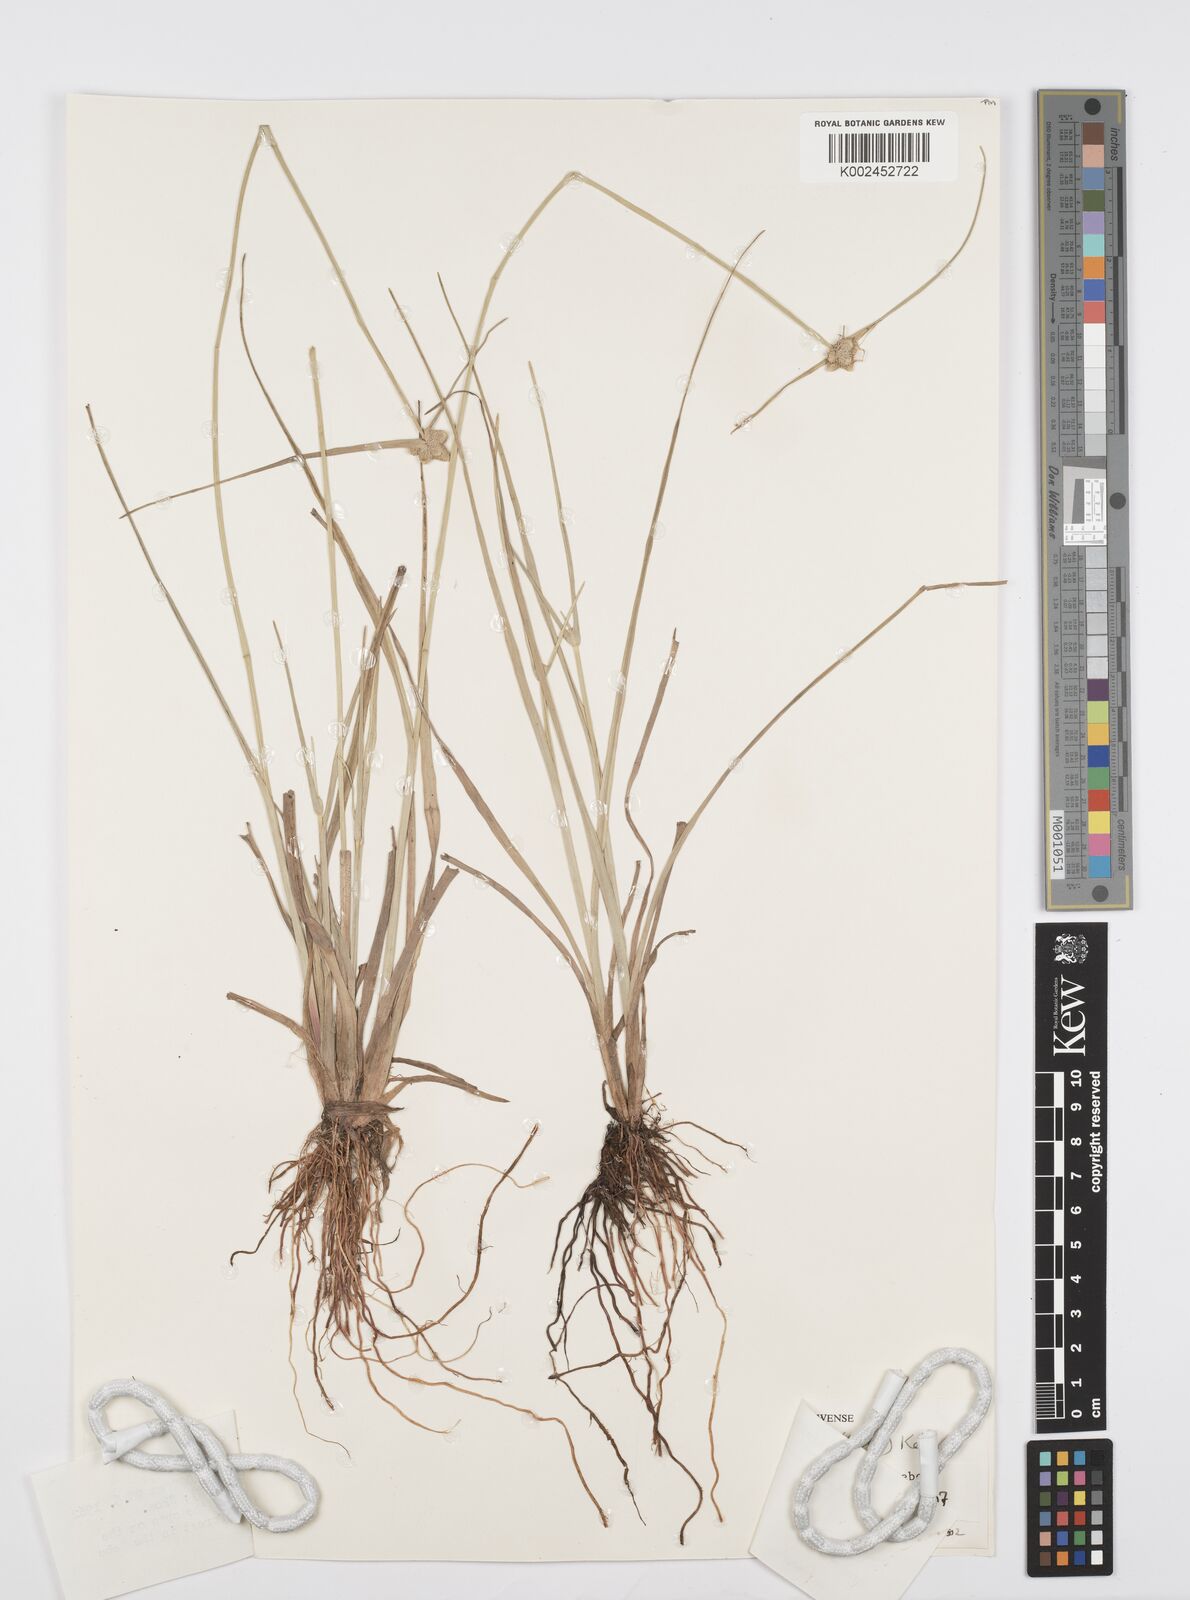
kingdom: Plantae
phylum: Tracheophyta
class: Liliopsida
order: Poales
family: Cyperaceae
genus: Cyperus
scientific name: Cyperus albescens
